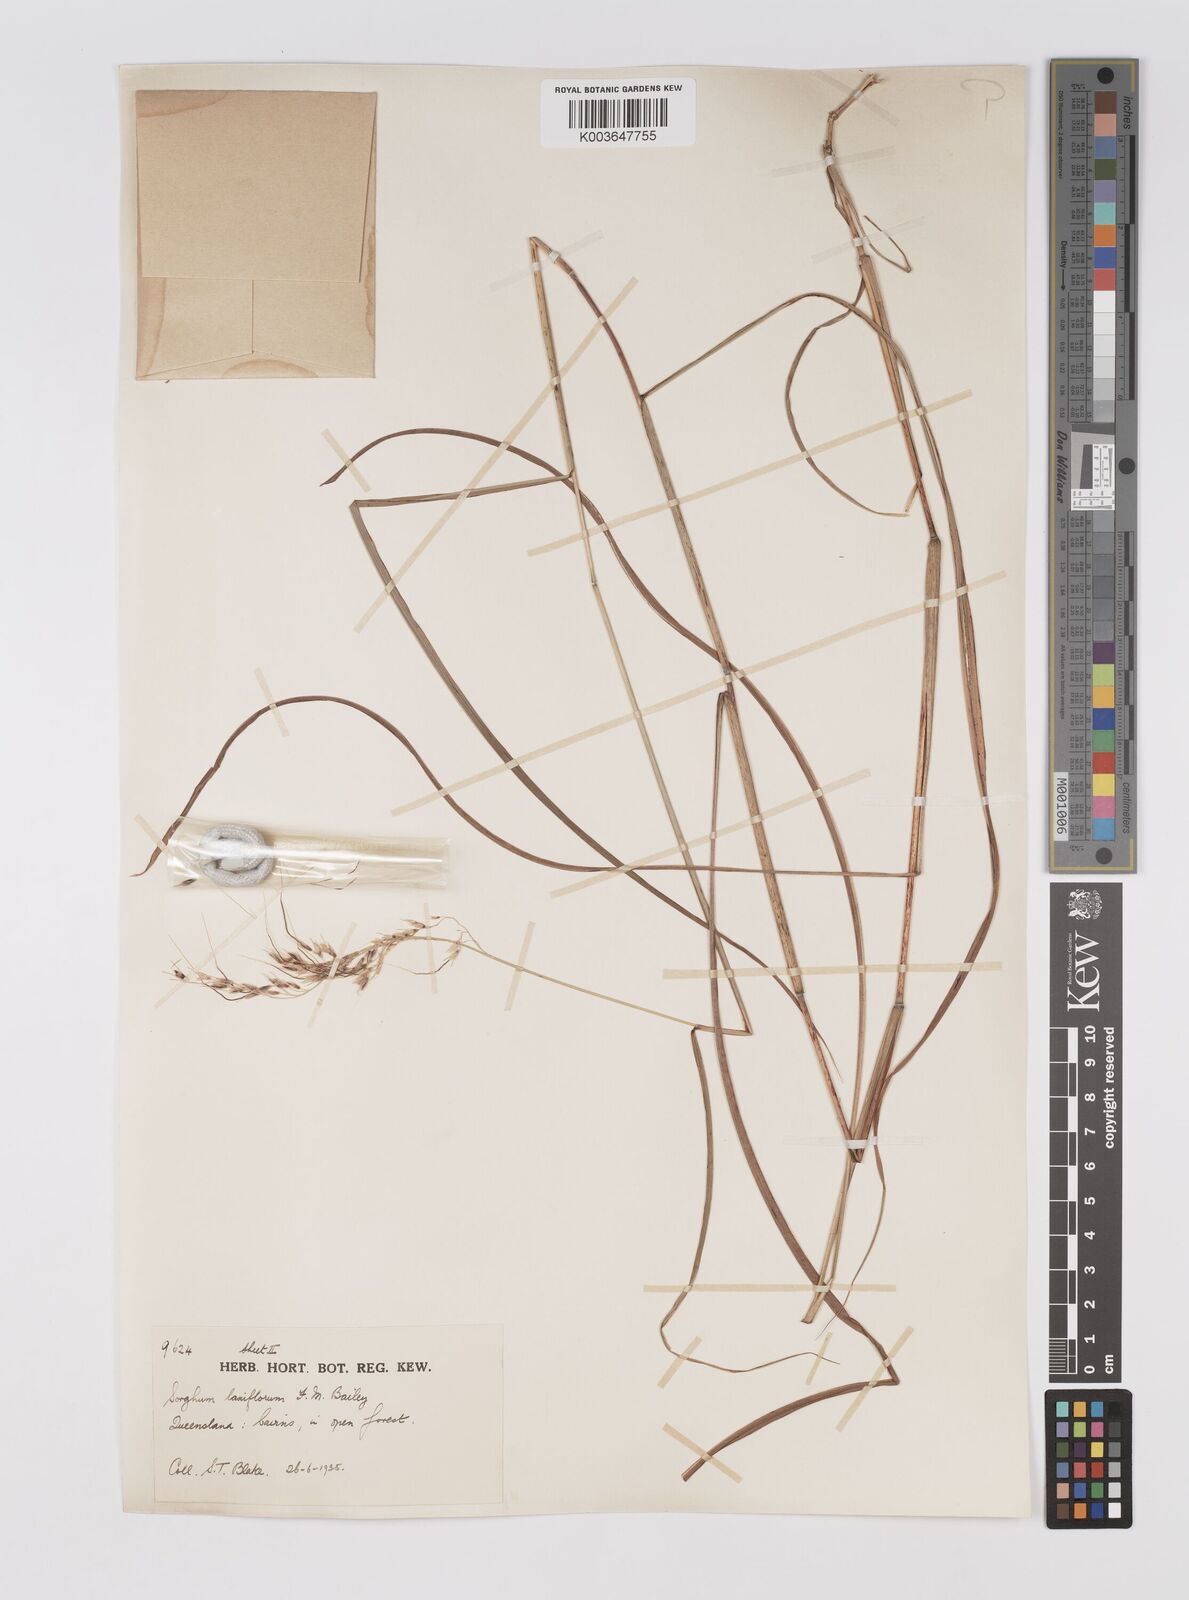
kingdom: Plantae
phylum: Tracheophyta
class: Liliopsida
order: Poales
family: Poaceae
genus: Sorghum
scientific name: Sorghum laxiflorum
